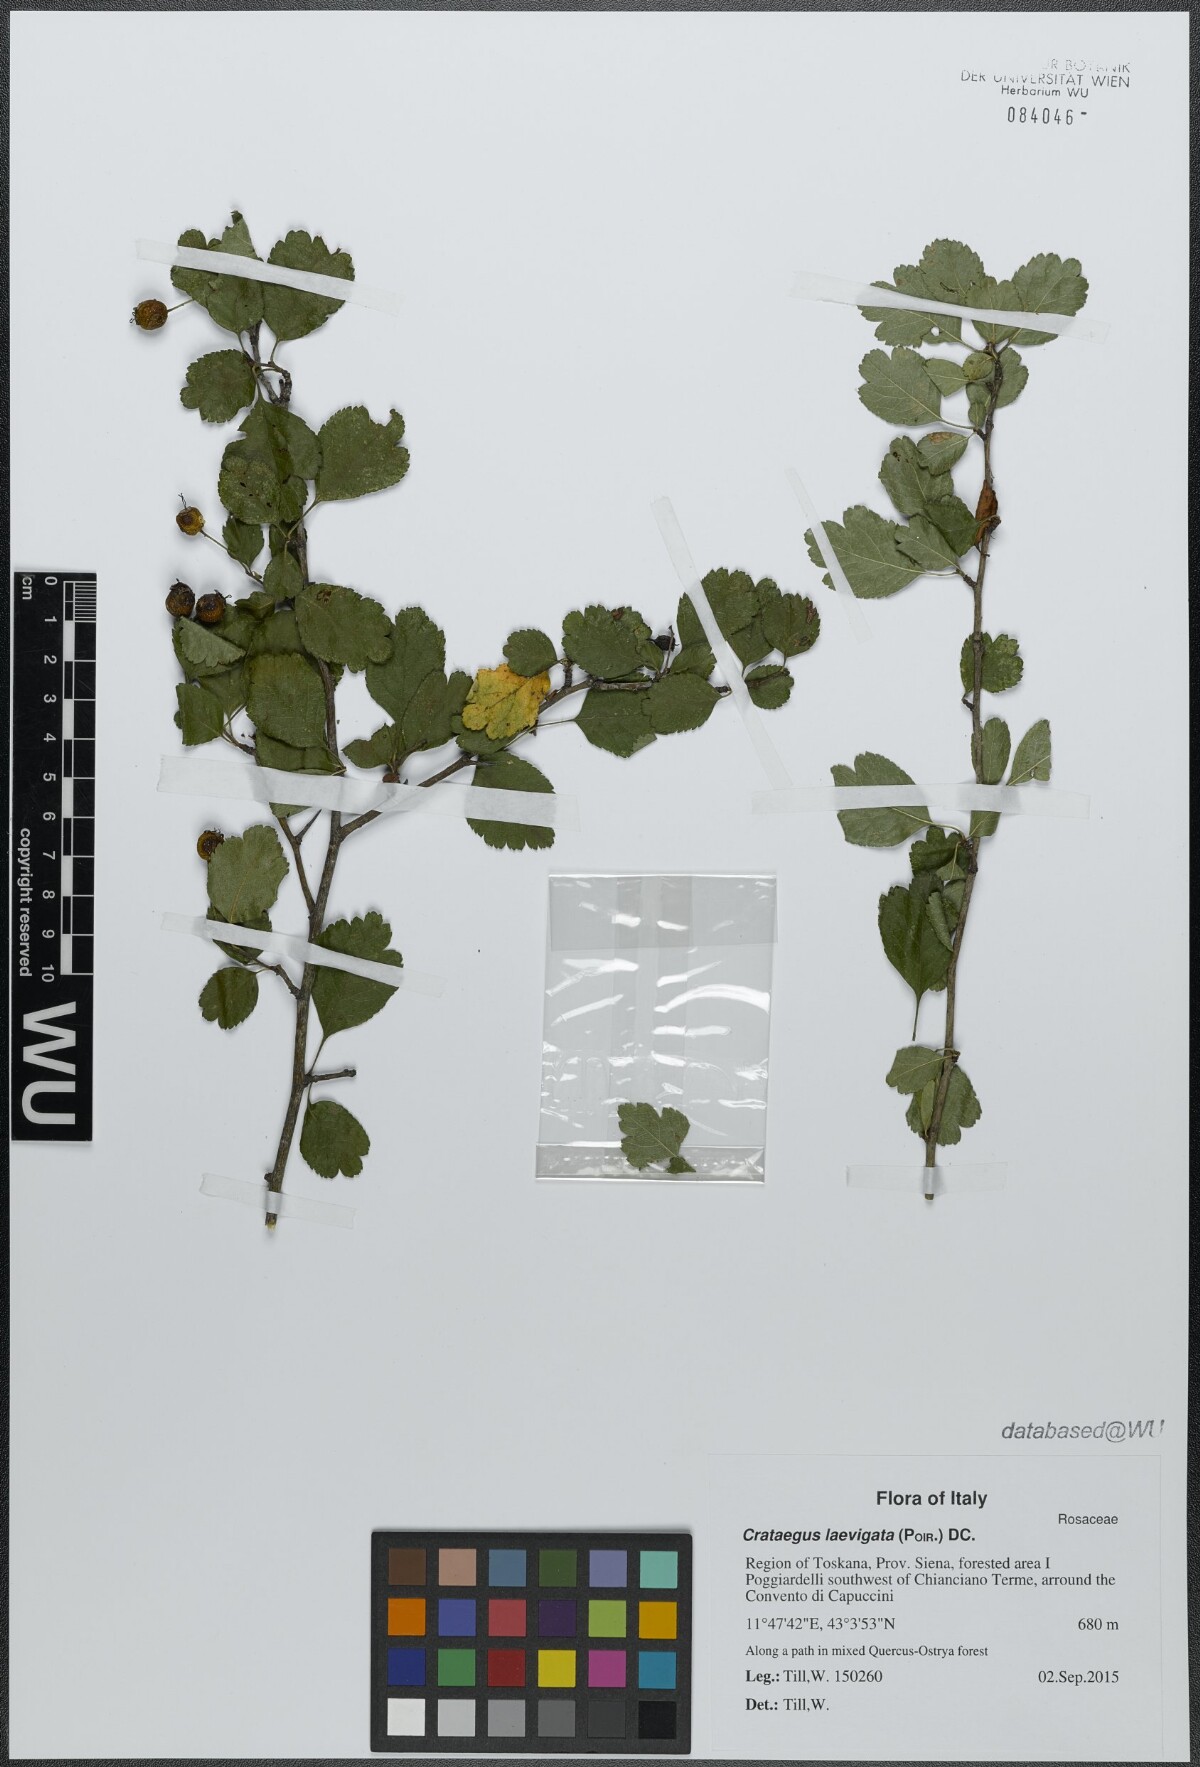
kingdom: Plantae
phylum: Tracheophyta
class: Magnoliopsida
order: Rosales
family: Rosaceae
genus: Crataegus
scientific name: Crataegus laevigata
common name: Midland hawthorn
